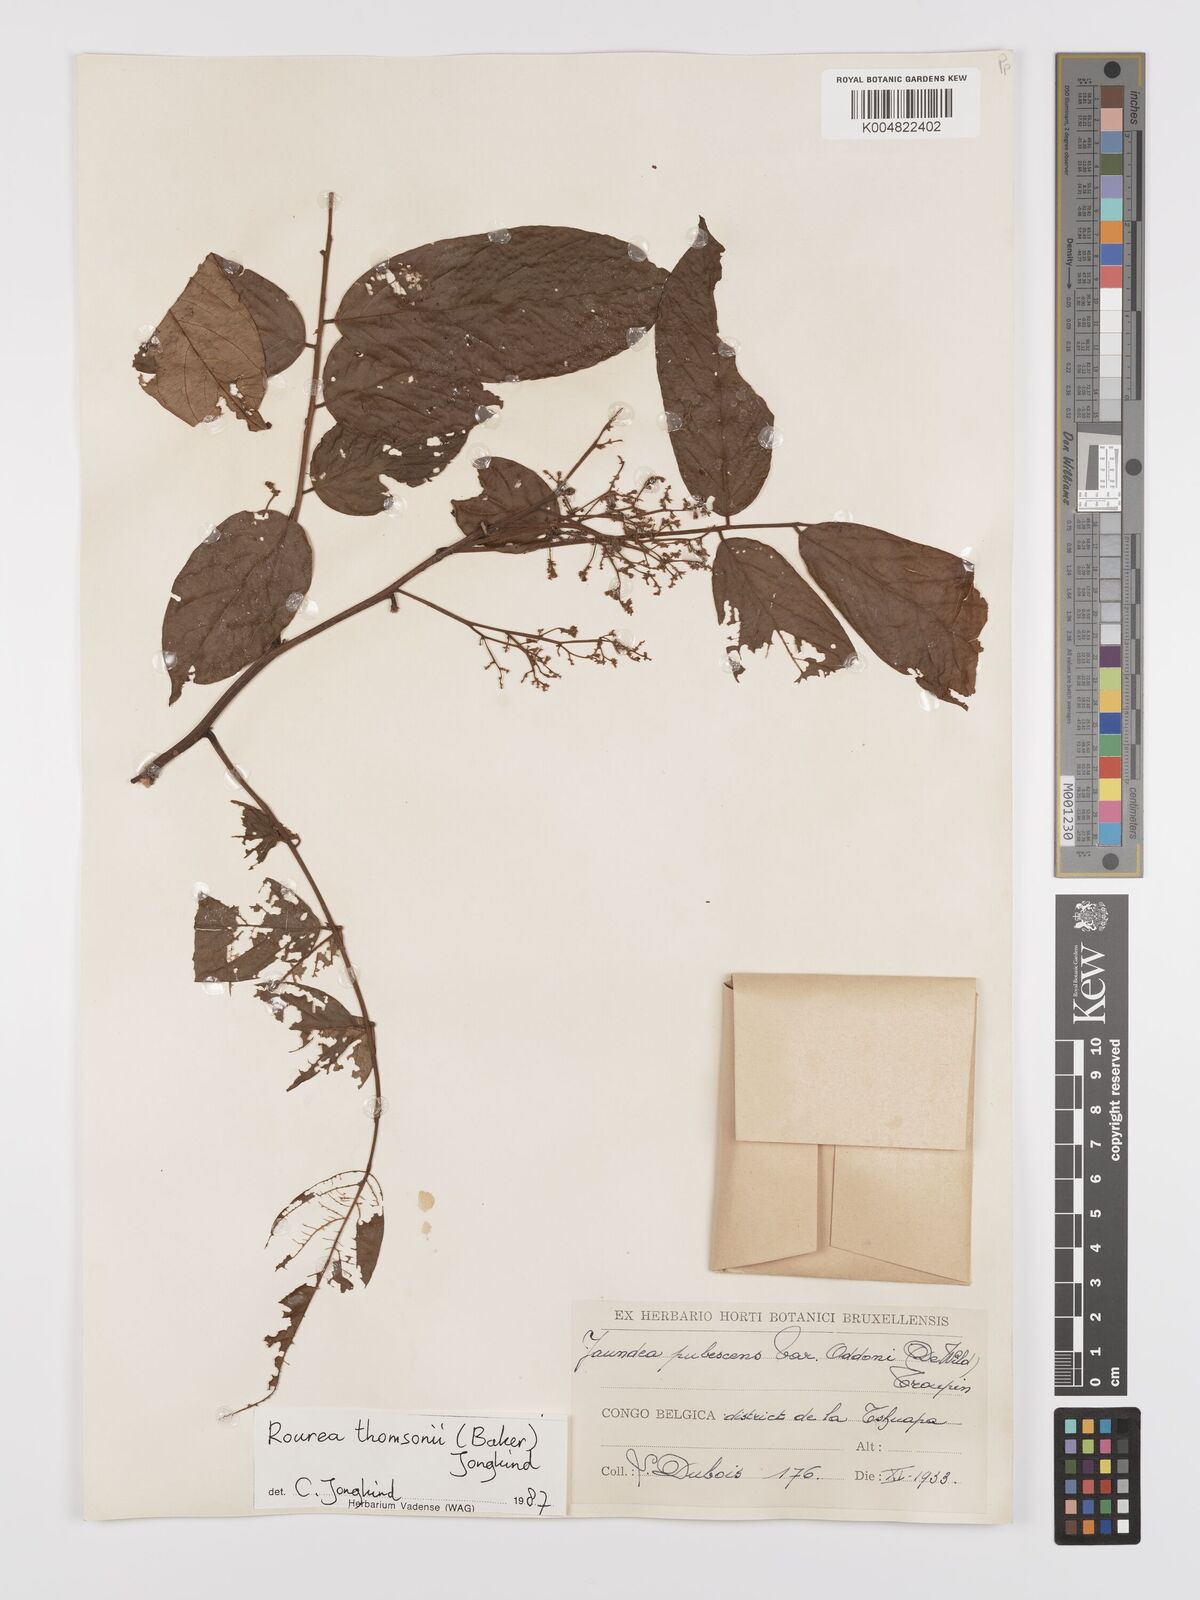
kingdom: Plantae
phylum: Tracheophyta
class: Magnoliopsida
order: Oxalidales
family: Connaraceae
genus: Rourea
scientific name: Rourea pubescens
